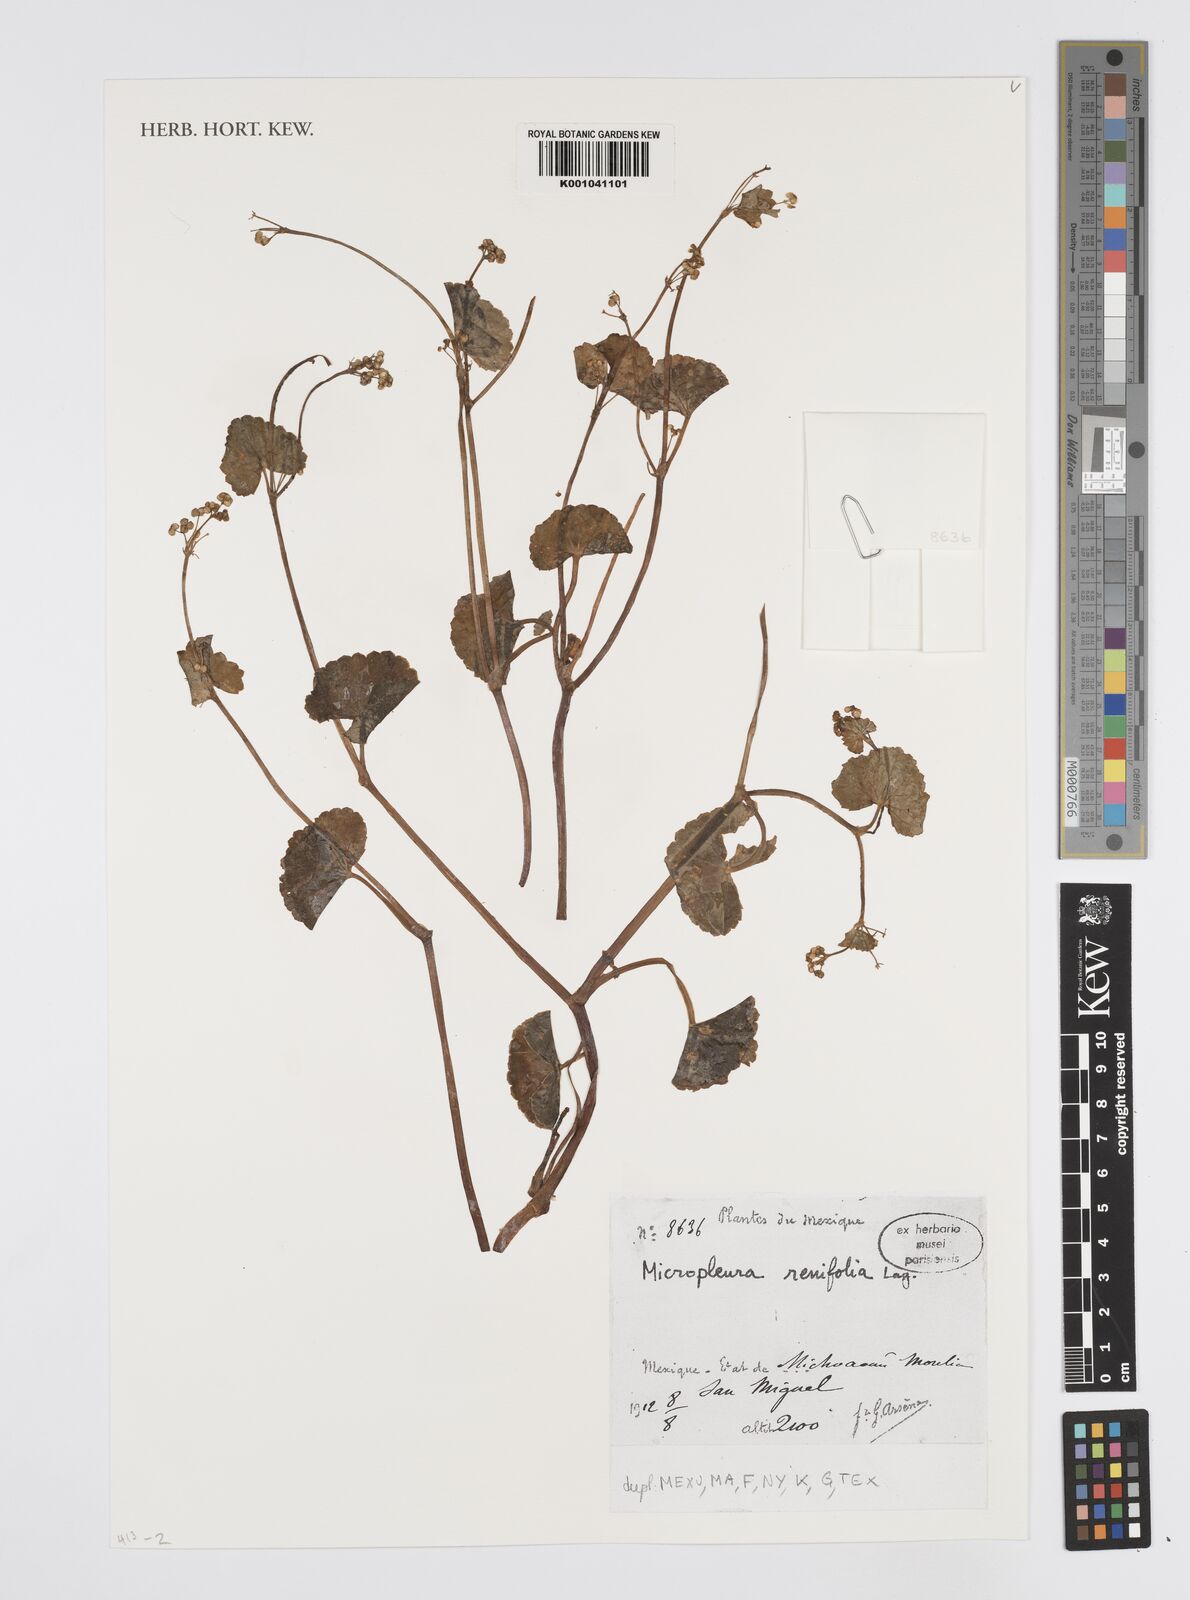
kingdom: Plantae
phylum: Tracheophyta
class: Magnoliopsida
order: Apiales
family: Apiaceae
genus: Micropleura
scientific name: Micropleura renifolia
